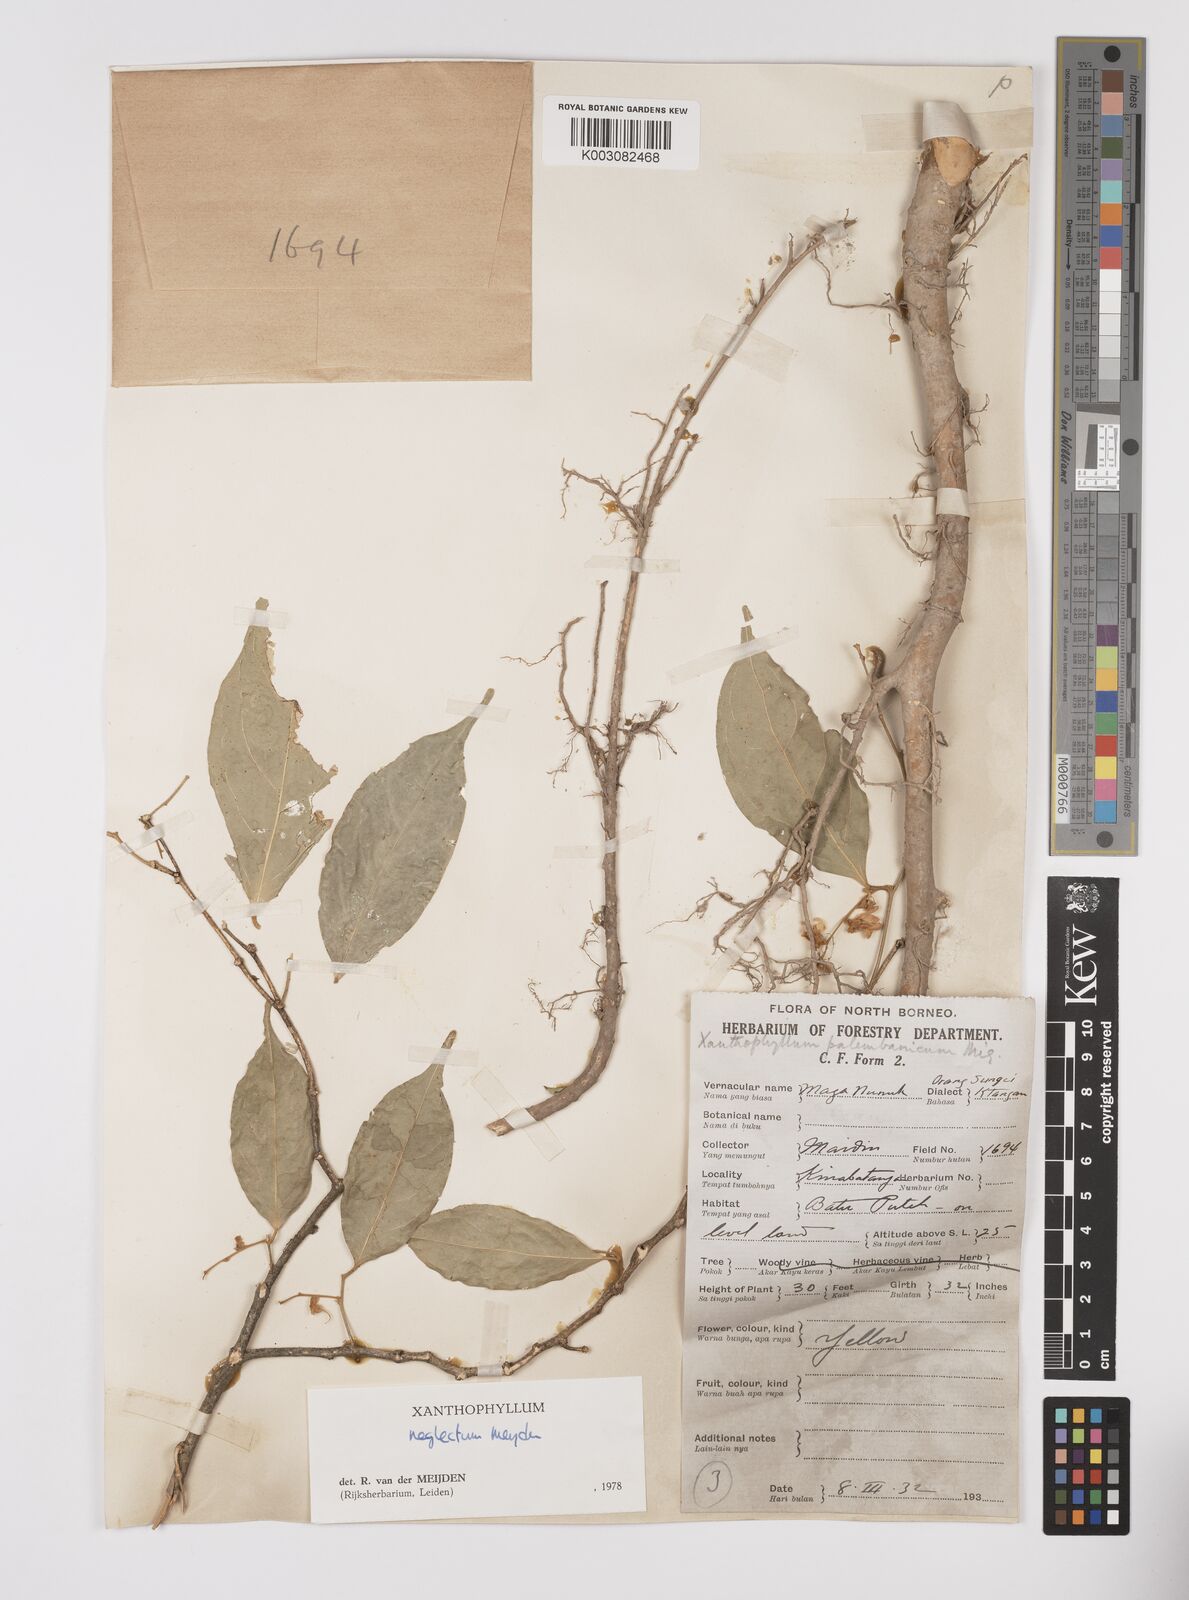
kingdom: Plantae
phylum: Tracheophyta
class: Magnoliopsida
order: Fabales
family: Polygalaceae
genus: Xanthophyllum
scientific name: Xanthophyllum neglectum
